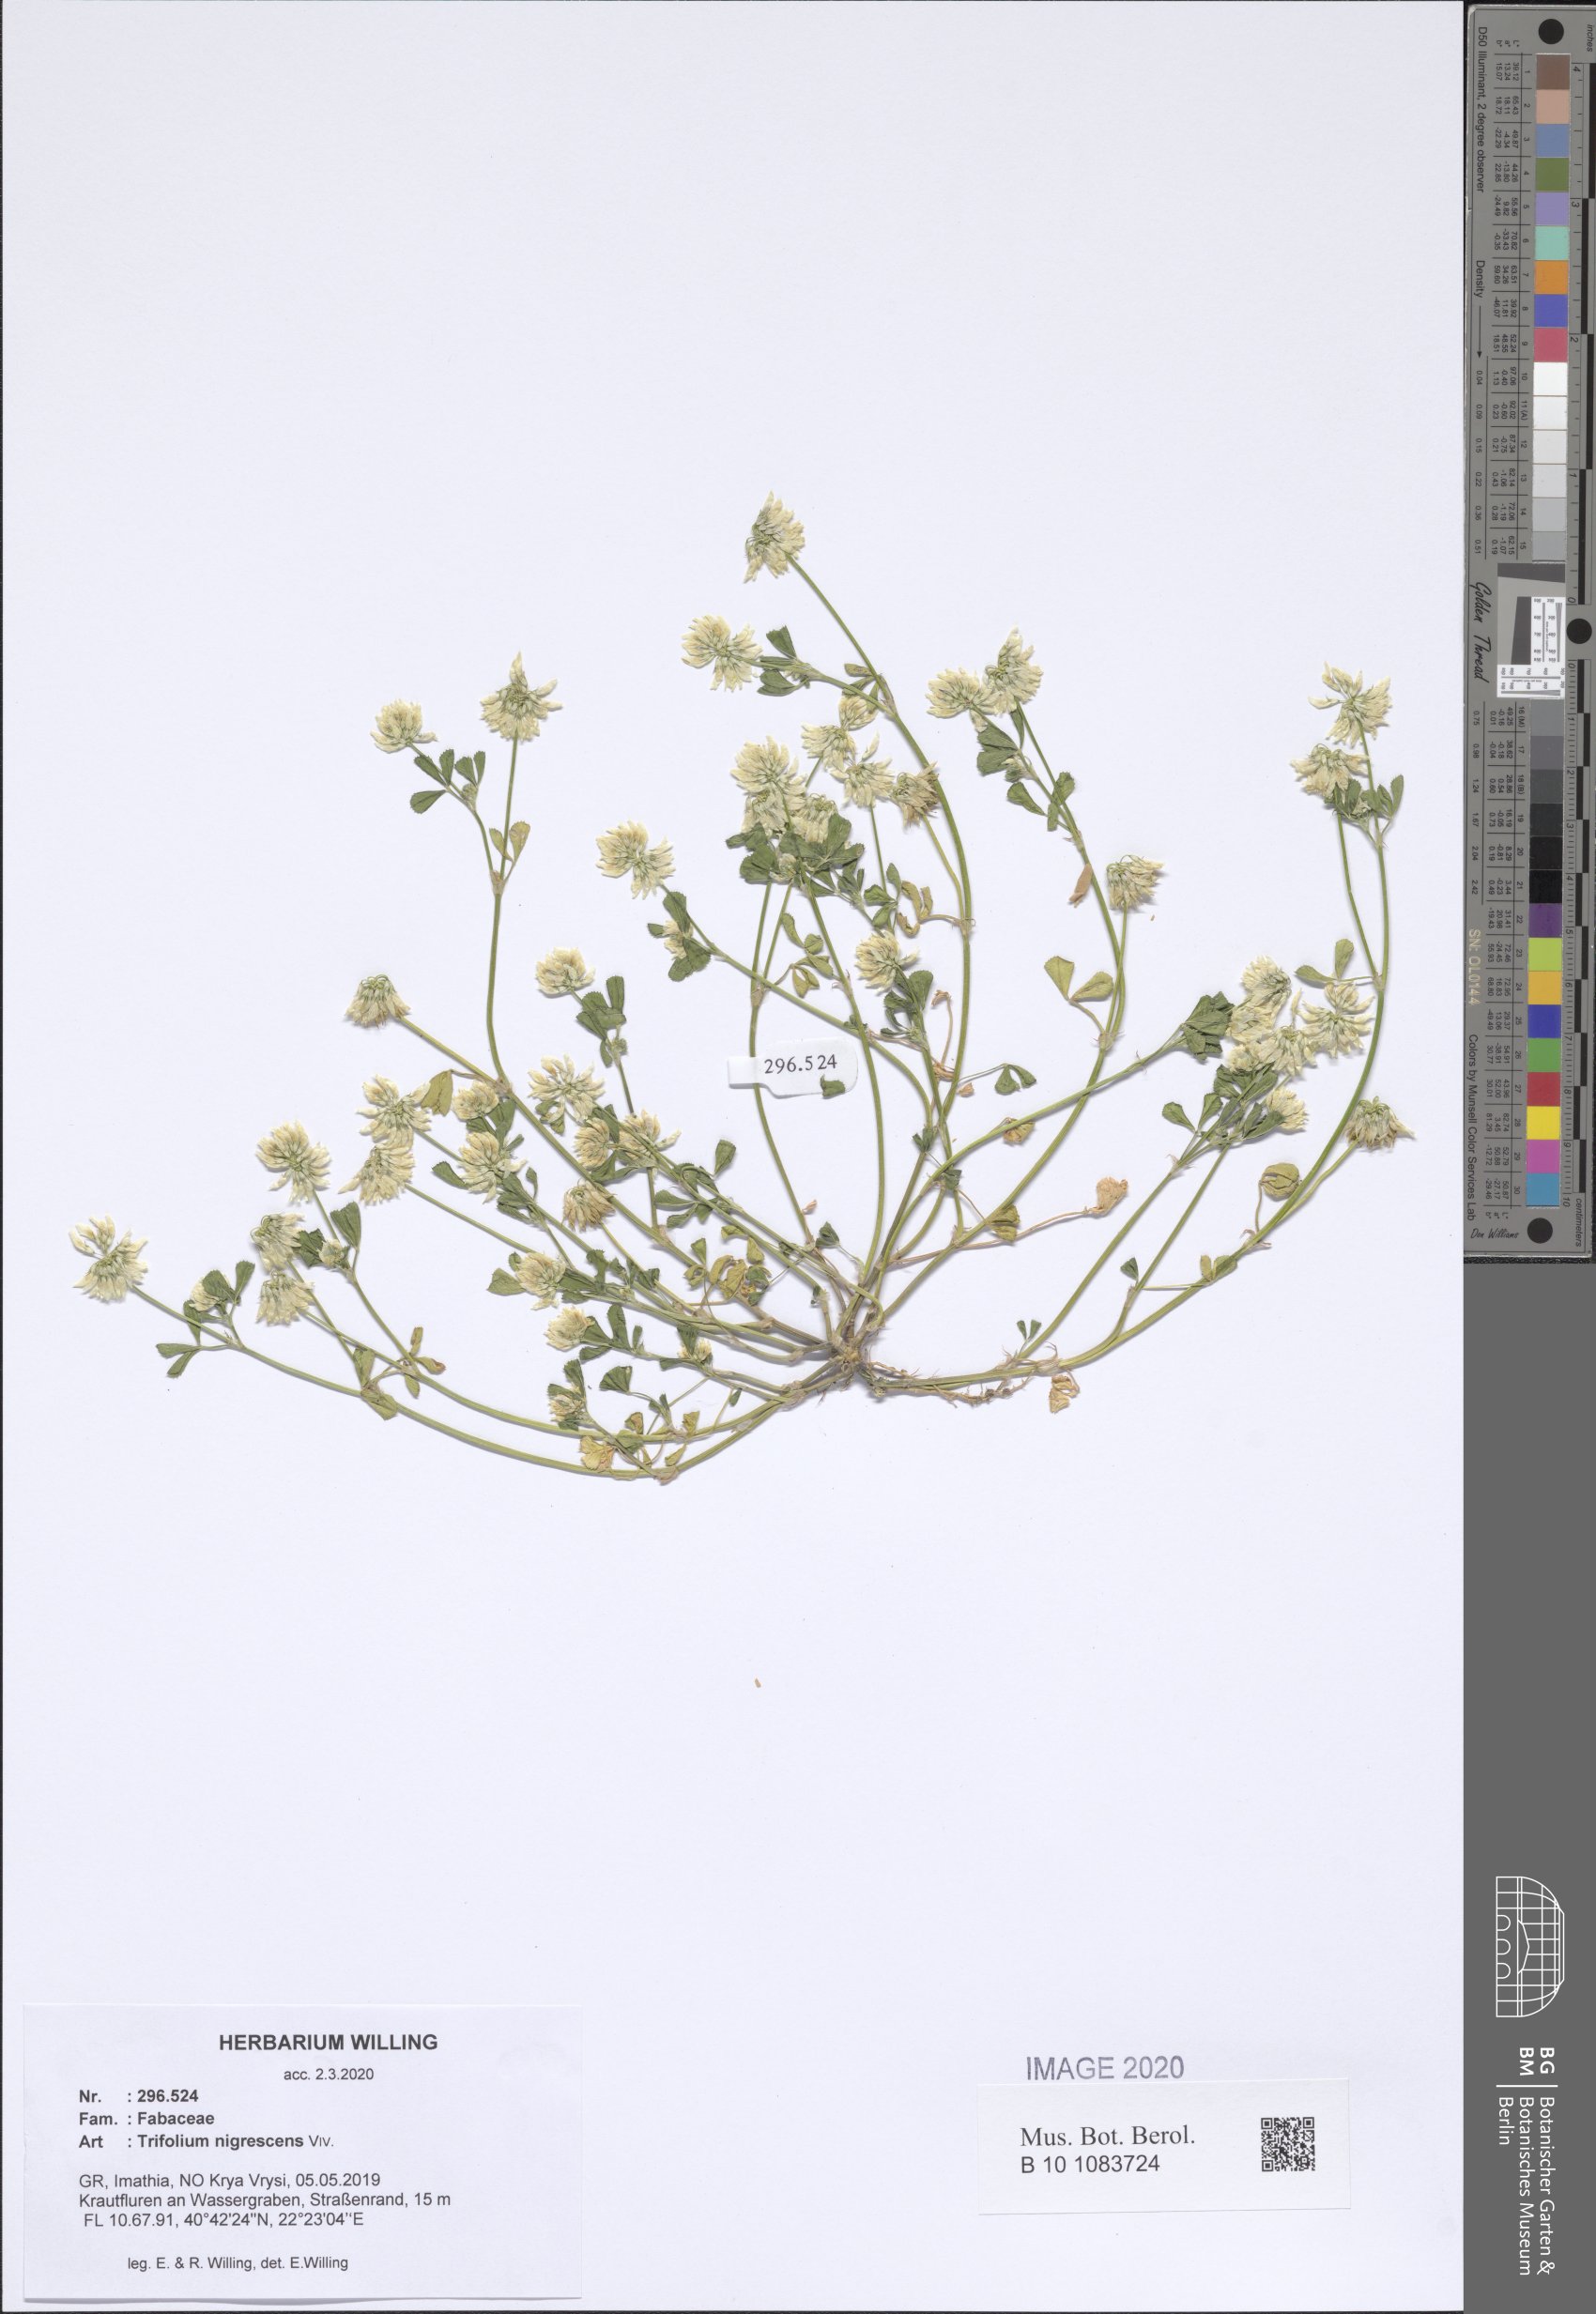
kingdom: Plantae
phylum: Tracheophyta
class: Magnoliopsida
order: Fabales
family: Fabaceae
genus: Trifolium
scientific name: Trifolium nigrescens
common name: Small white clover
